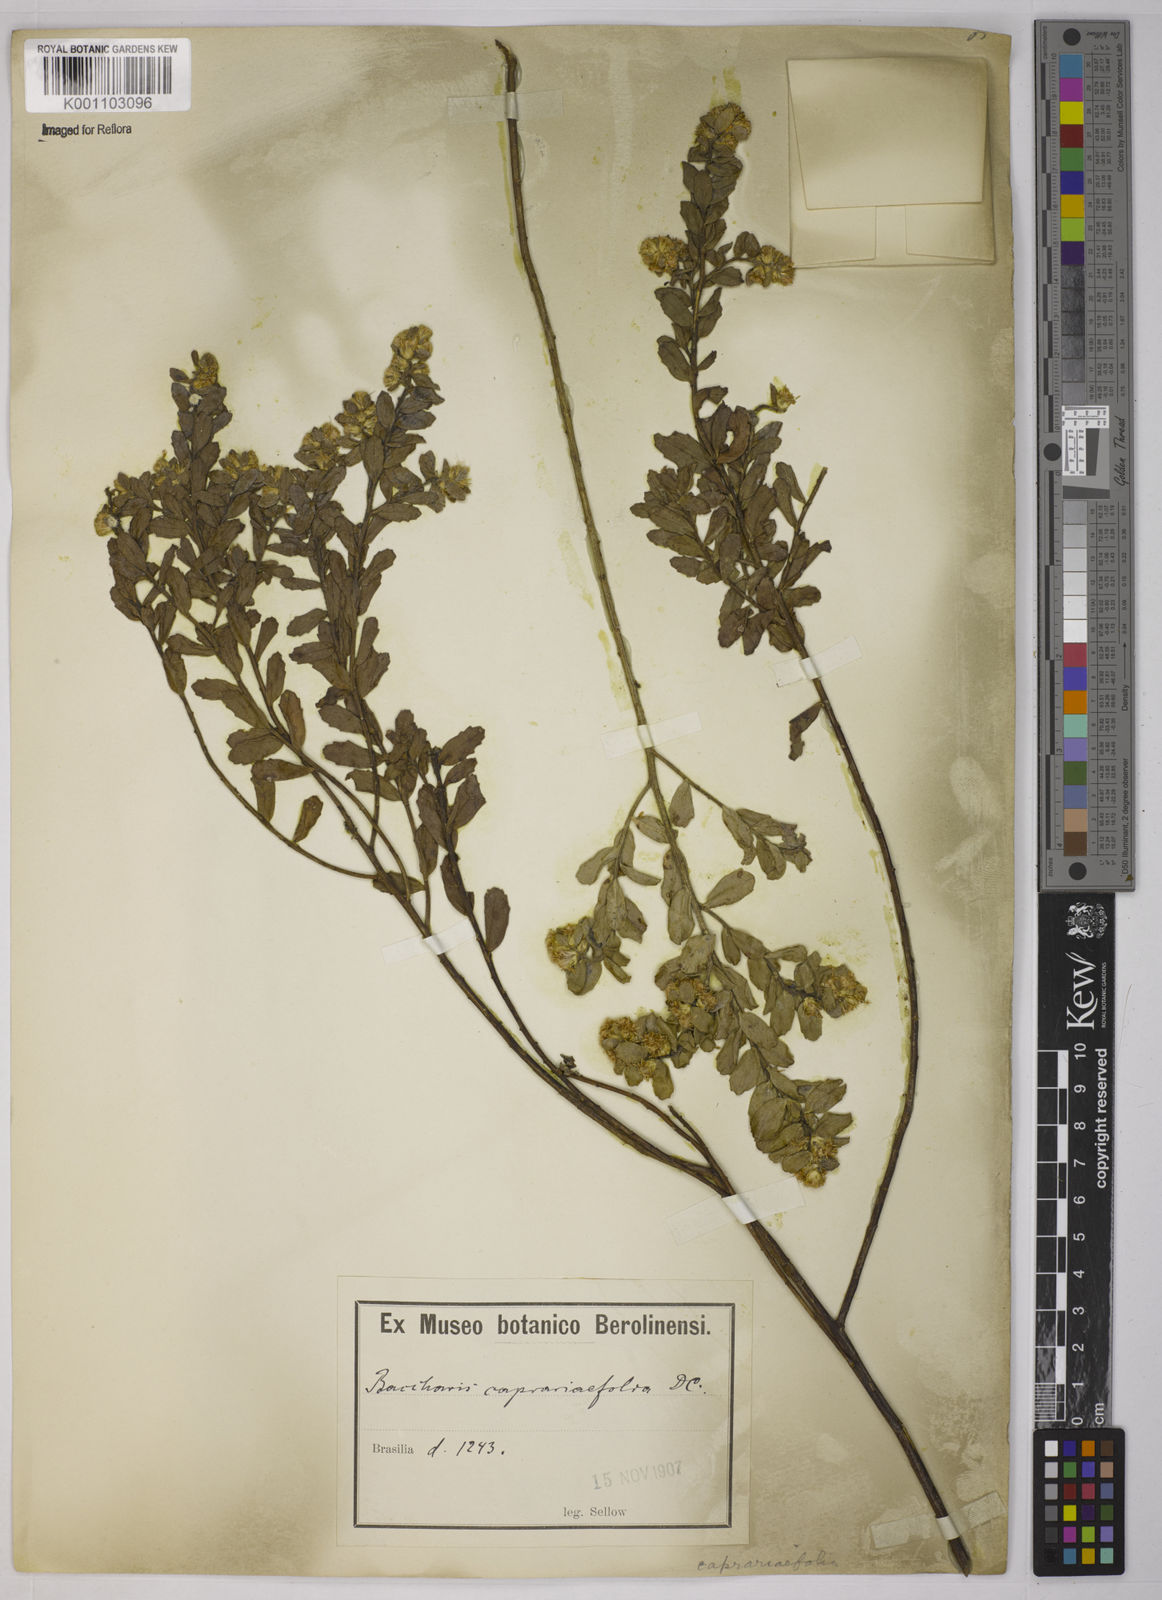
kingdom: Plantae
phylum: Tracheophyta
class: Magnoliopsida
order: Asterales
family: Asteraceae
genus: Baccharis
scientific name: Baccharis caprariifolia
